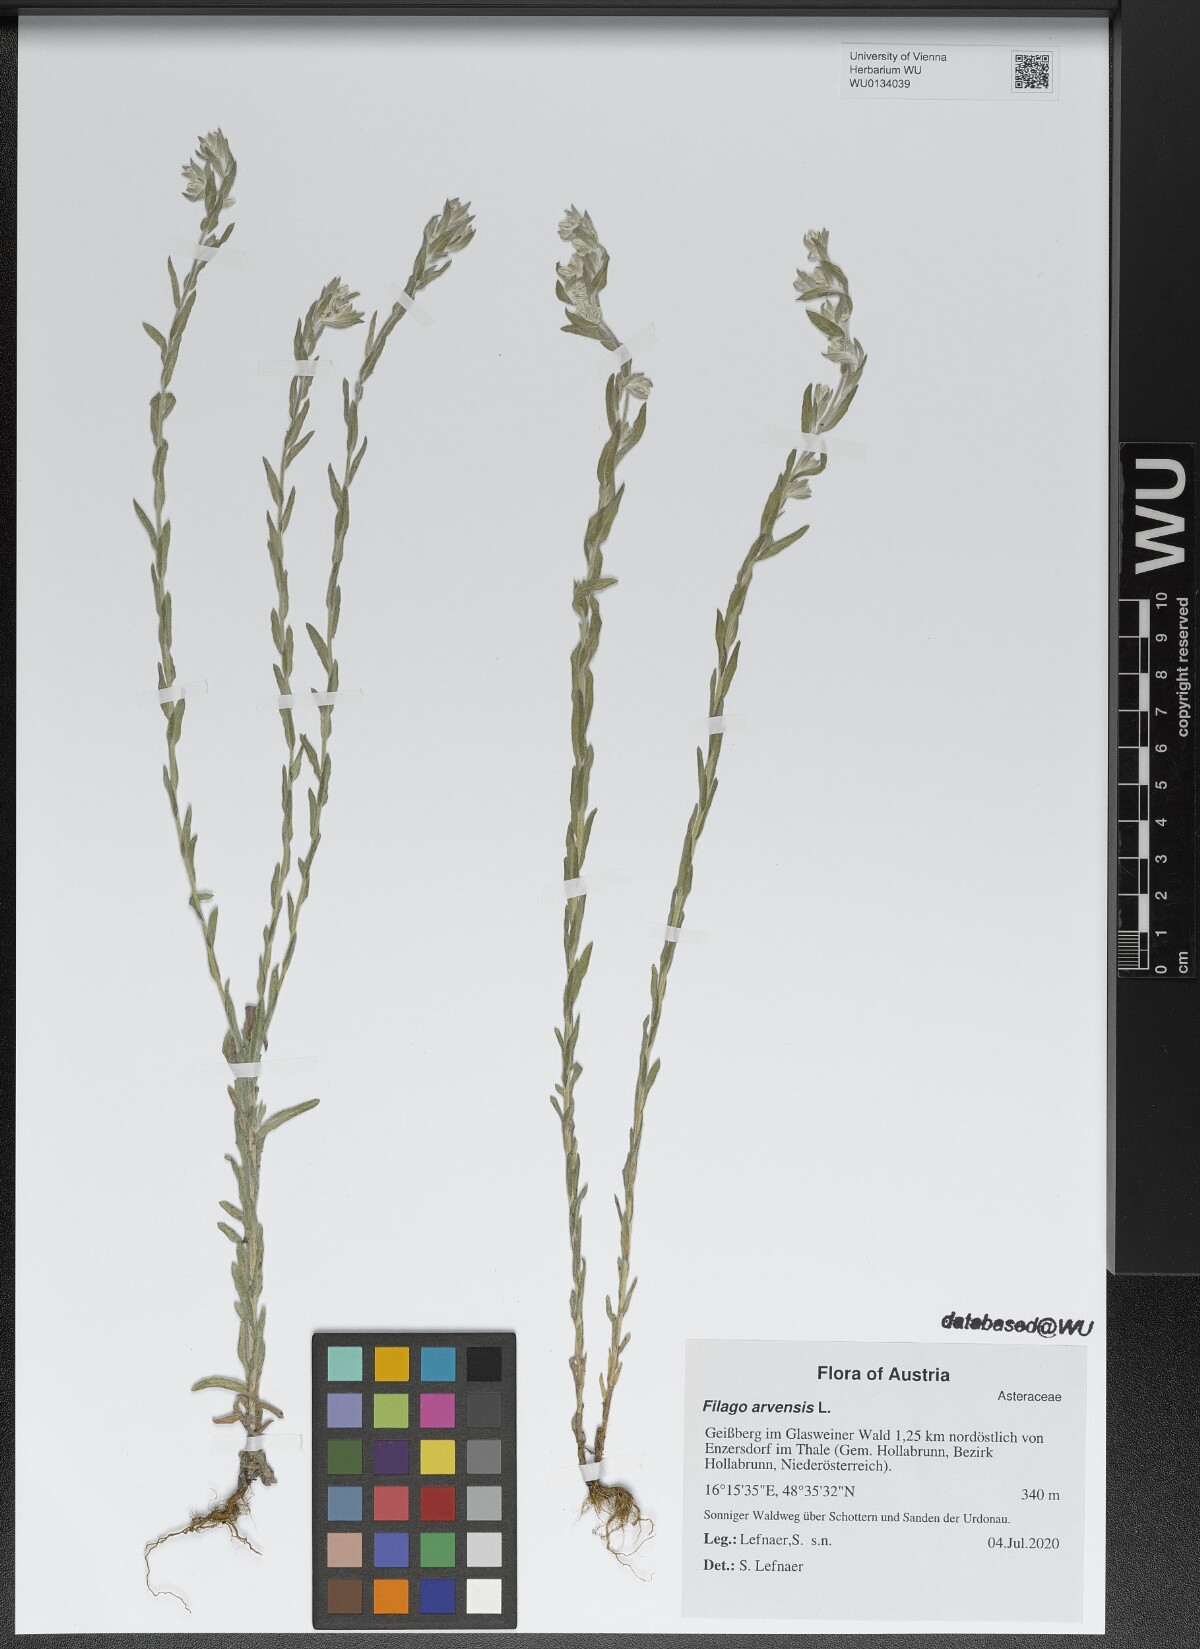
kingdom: Plantae
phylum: Tracheophyta
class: Magnoliopsida
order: Asterales
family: Asteraceae
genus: Filago
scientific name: Filago arvensis
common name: Field cudweed
